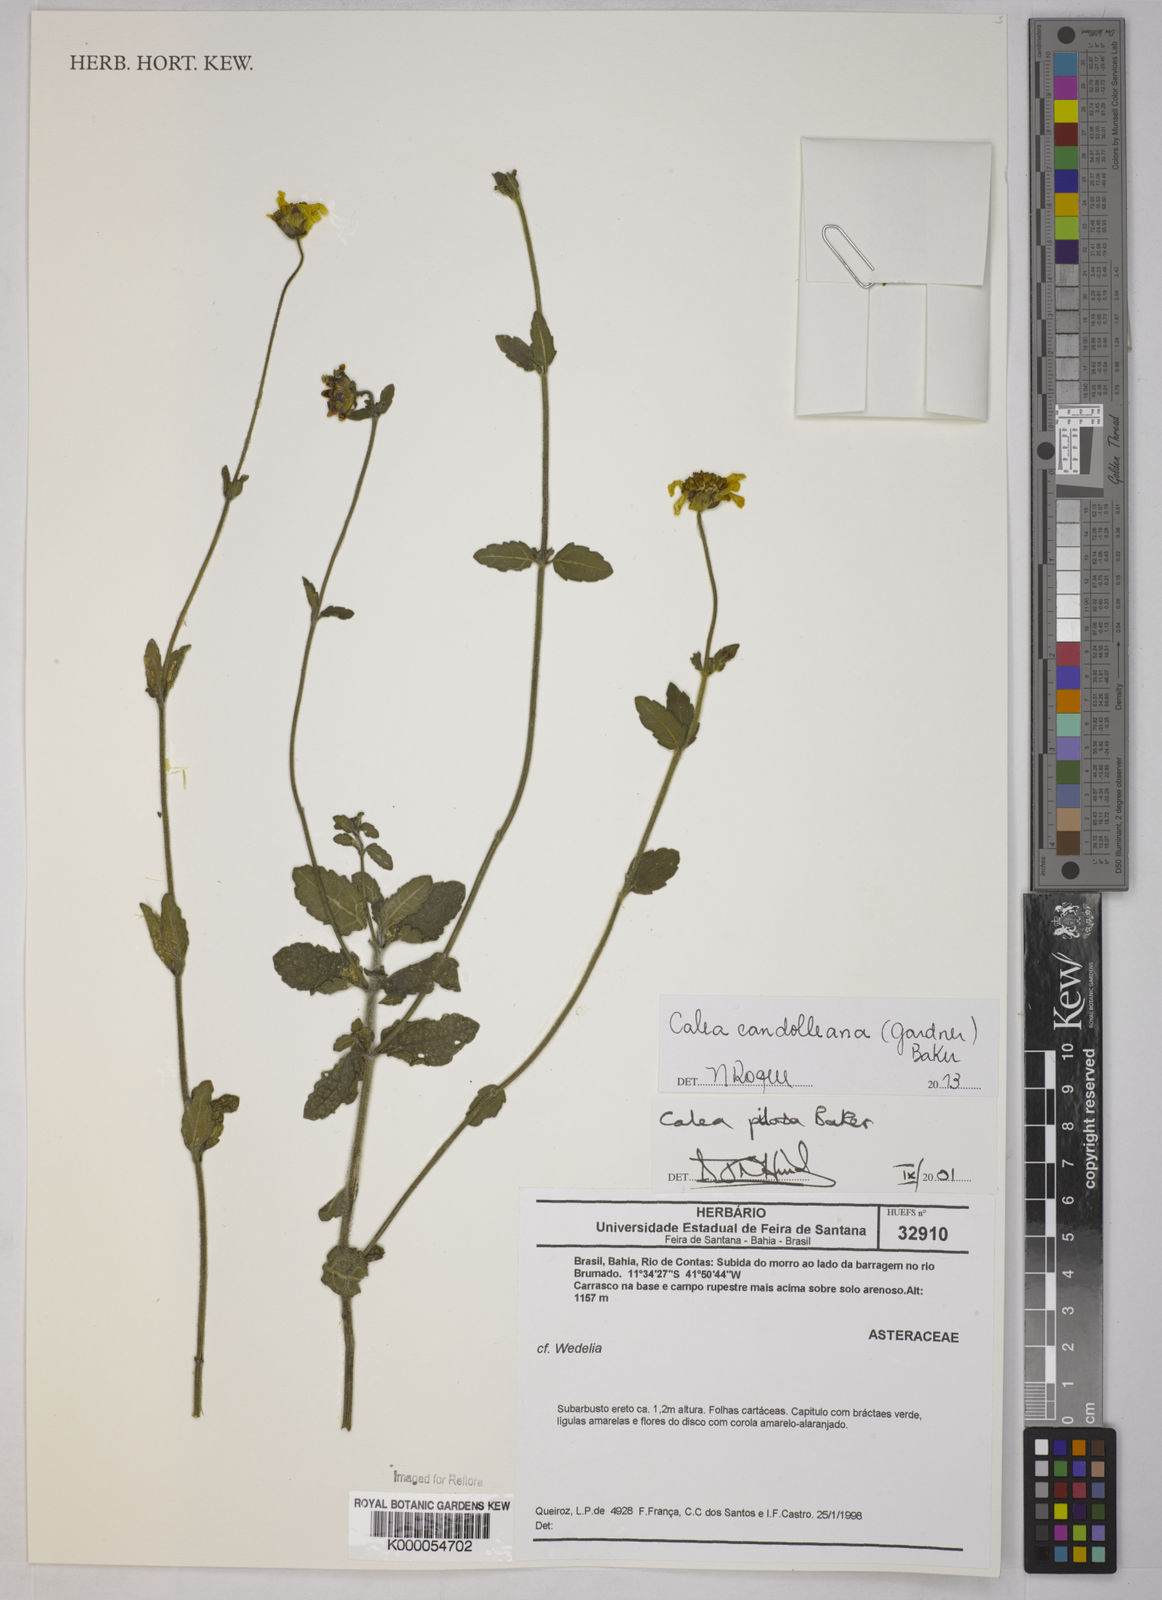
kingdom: Plantae
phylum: Tracheophyta
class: Magnoliopsida
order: Asterales
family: Asteraceae
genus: Calea
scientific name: Calea pilosa
